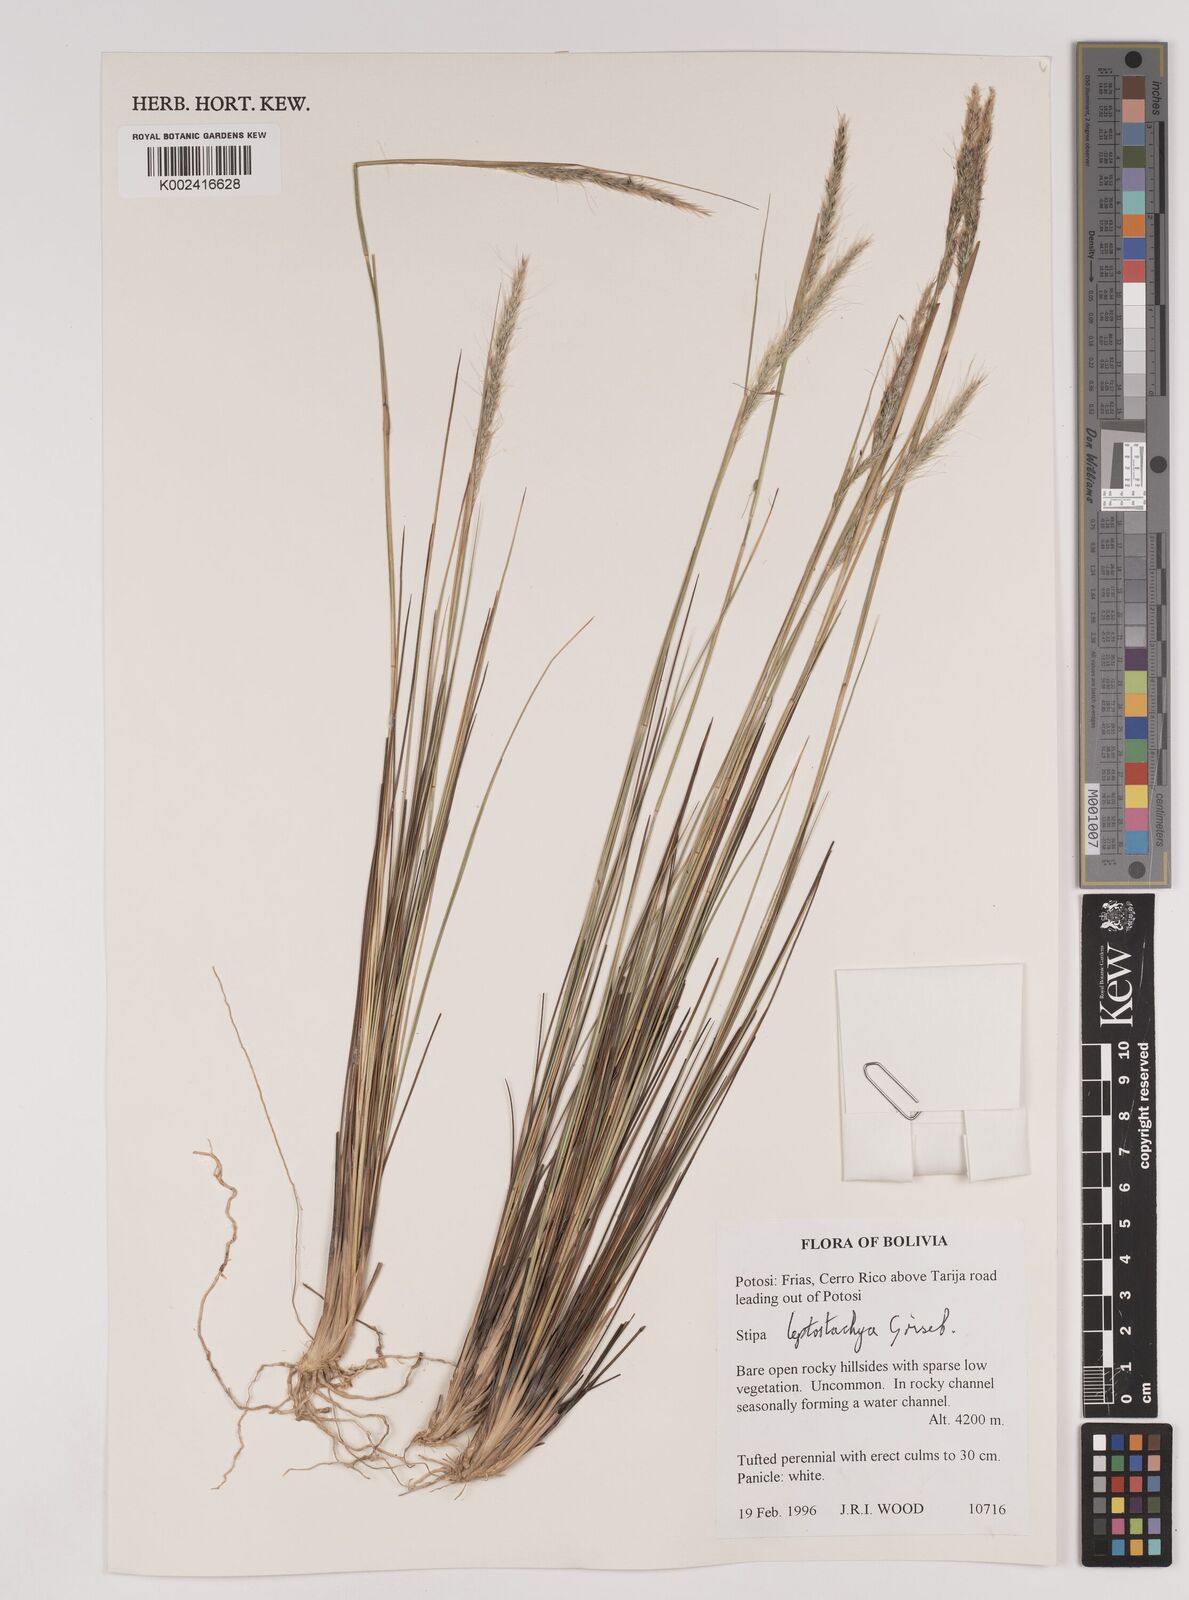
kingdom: Plantae
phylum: Tracheophyta
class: Liliopsida
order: Poales
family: Poaceae
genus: Jarava
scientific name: Jarava leptostachya
